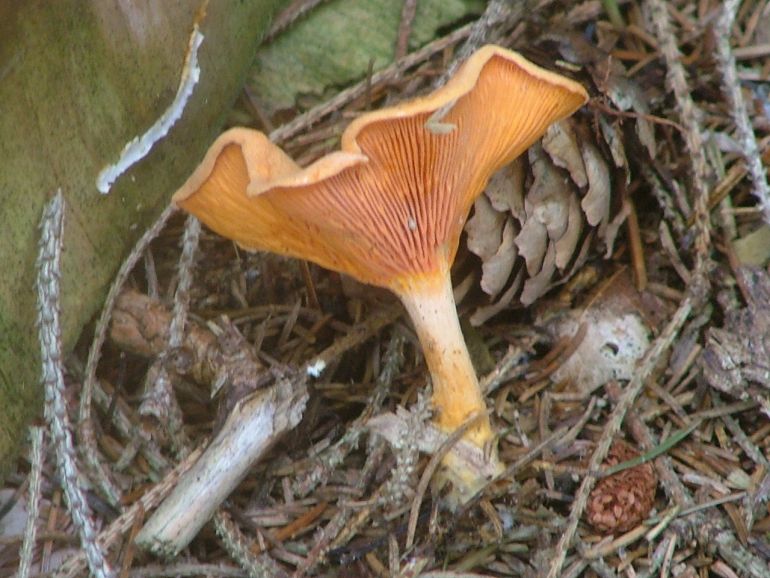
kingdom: Fungi
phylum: Basidiomycota
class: Agaricomycetes
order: Boletales
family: Hygrophoropsidaceae
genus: Hygrophoropsis
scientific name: Hygrophoropsis aurantiaca
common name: almindelig orangekantarel
